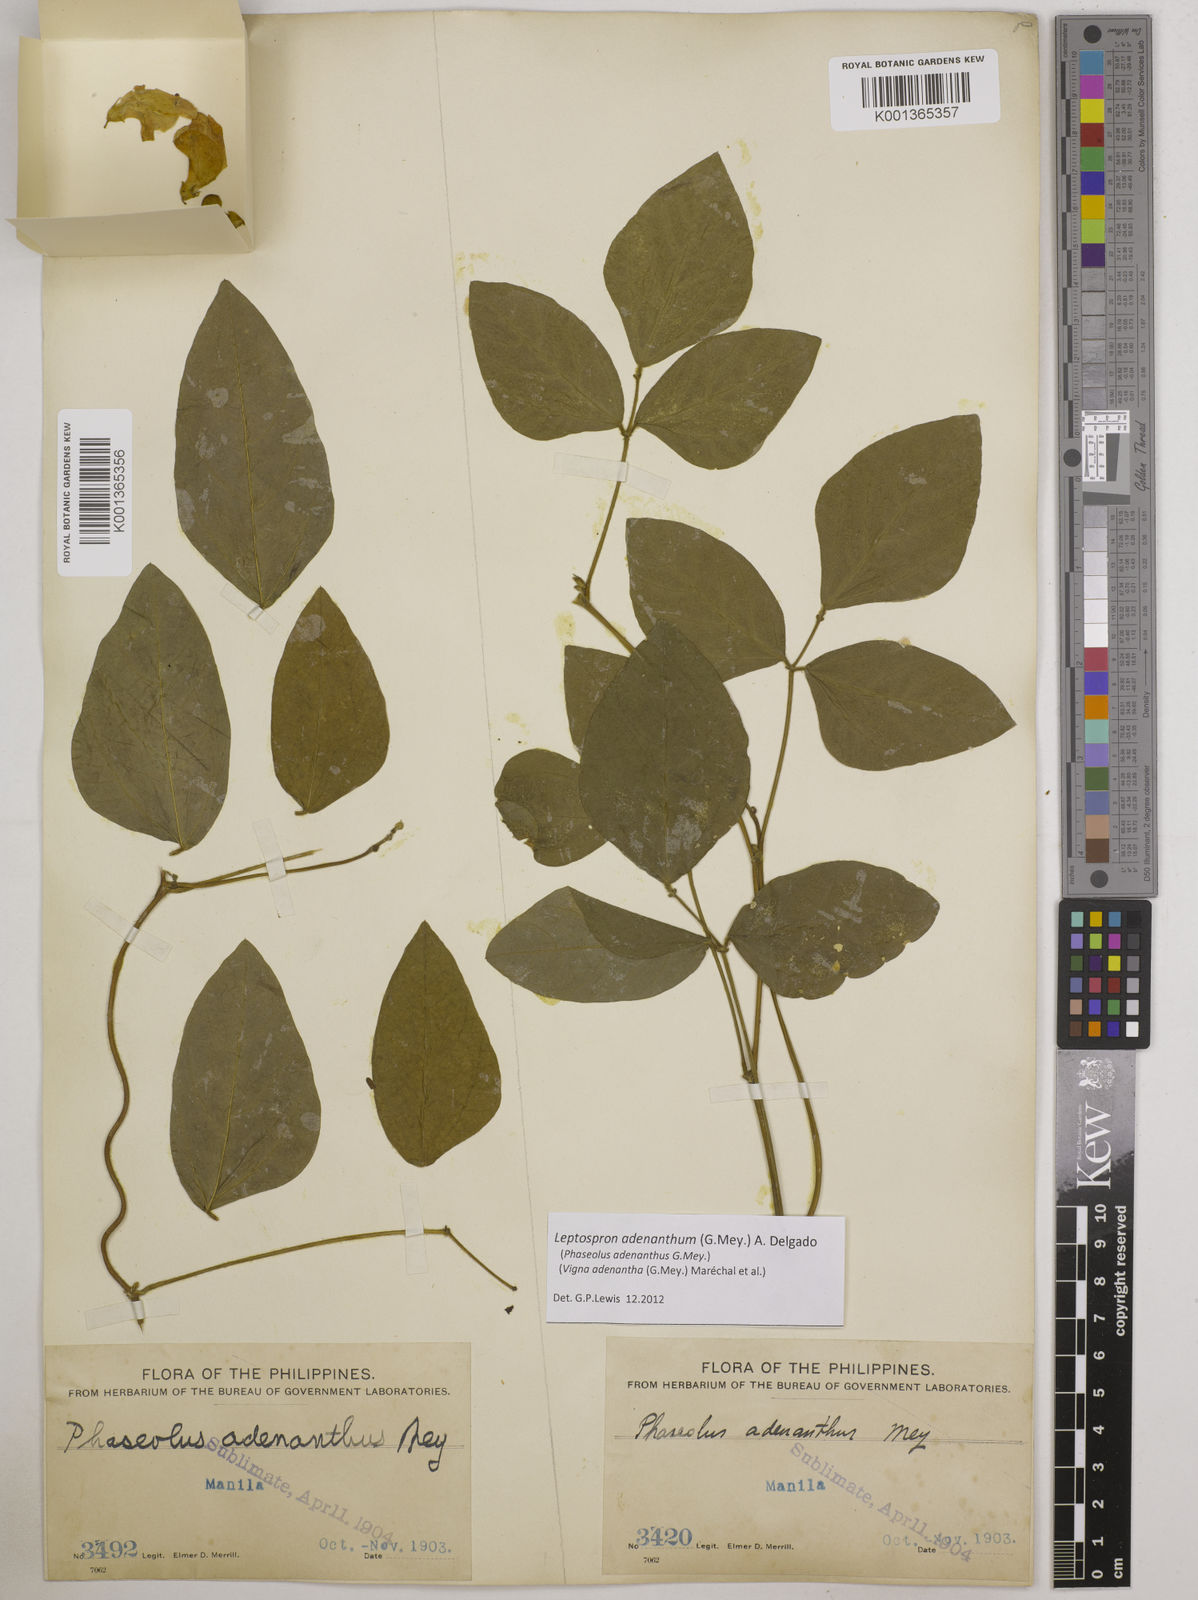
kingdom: Plantae
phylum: Tracheophyta
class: Magnoliopsida
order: Fabales
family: Fabaceae
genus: Leptospron
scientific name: Leptospron adenanthum
